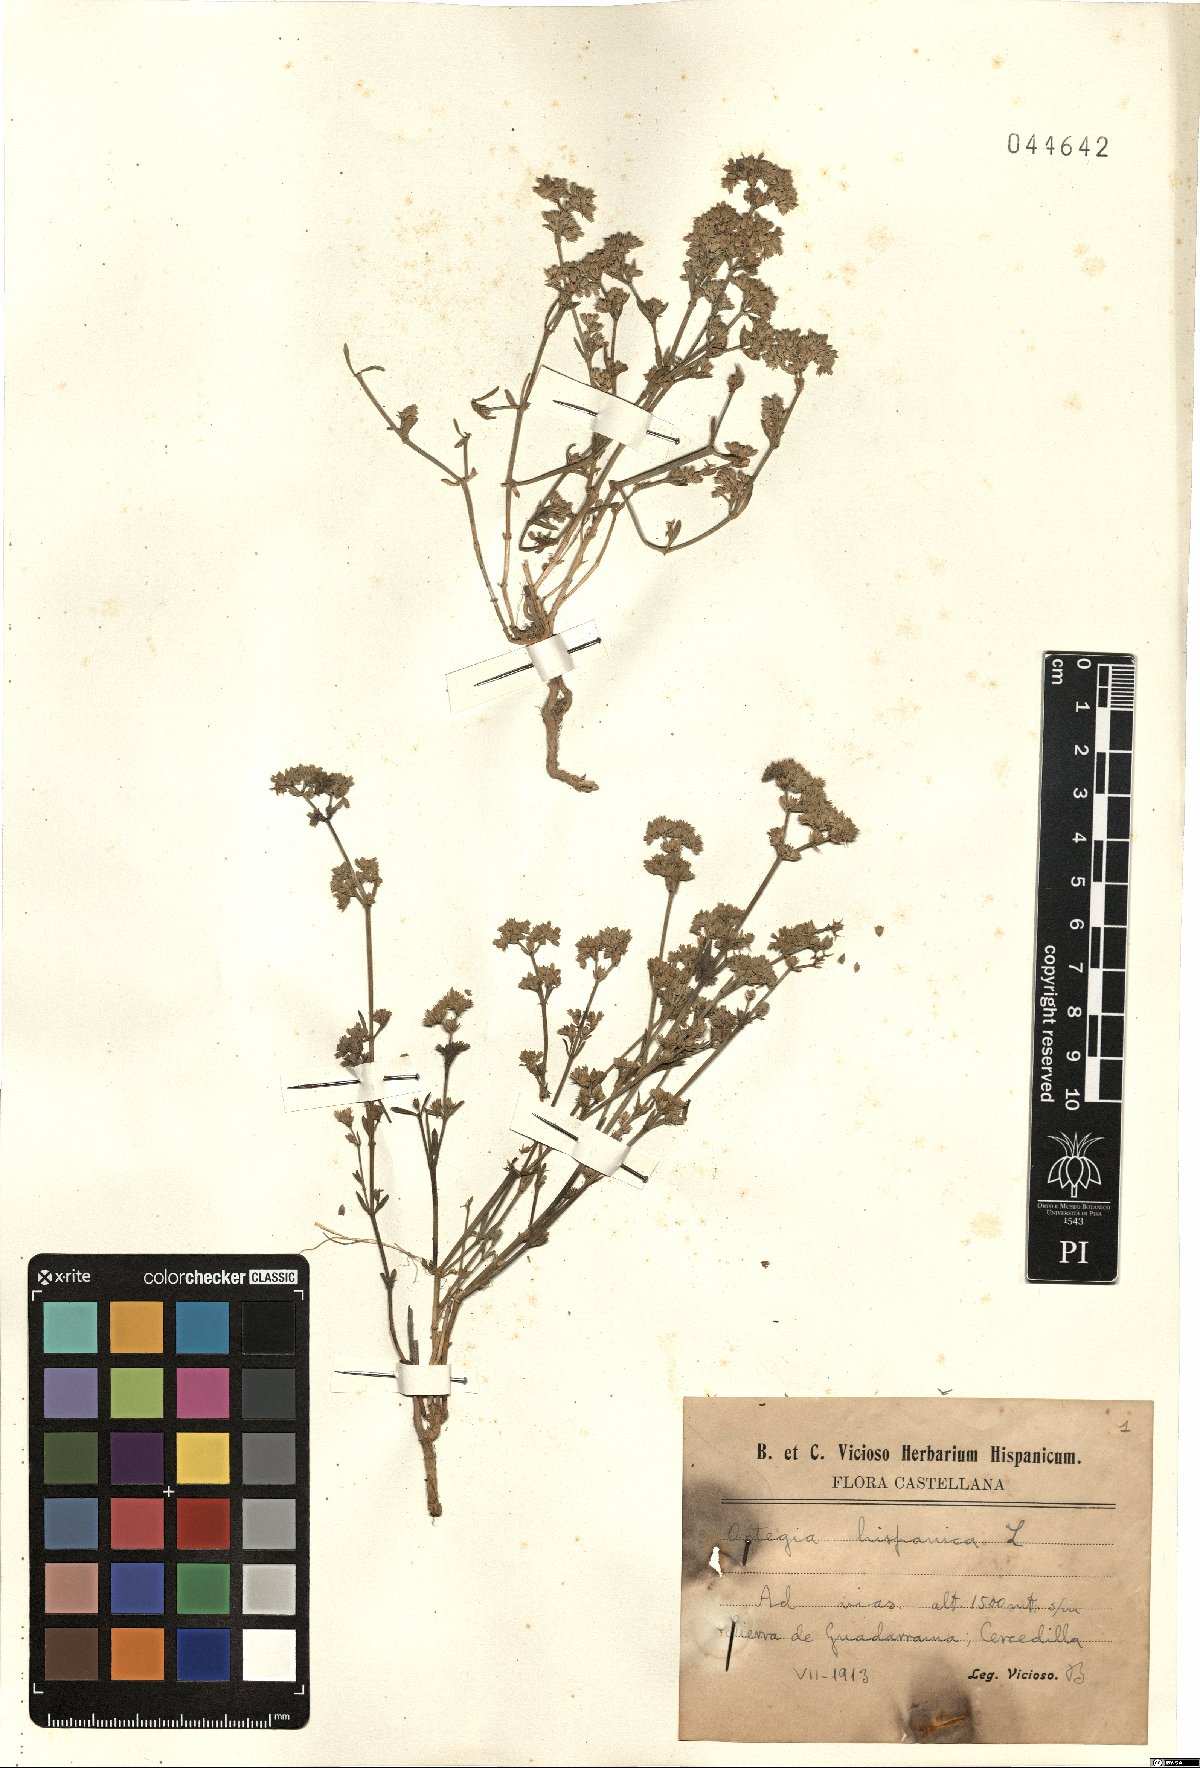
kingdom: Plantae
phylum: Tracheophyta
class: Magnoliopsida
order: Caryophyllales
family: Caryophyllaceae
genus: Ortegia
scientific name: Ortegia hispanica
